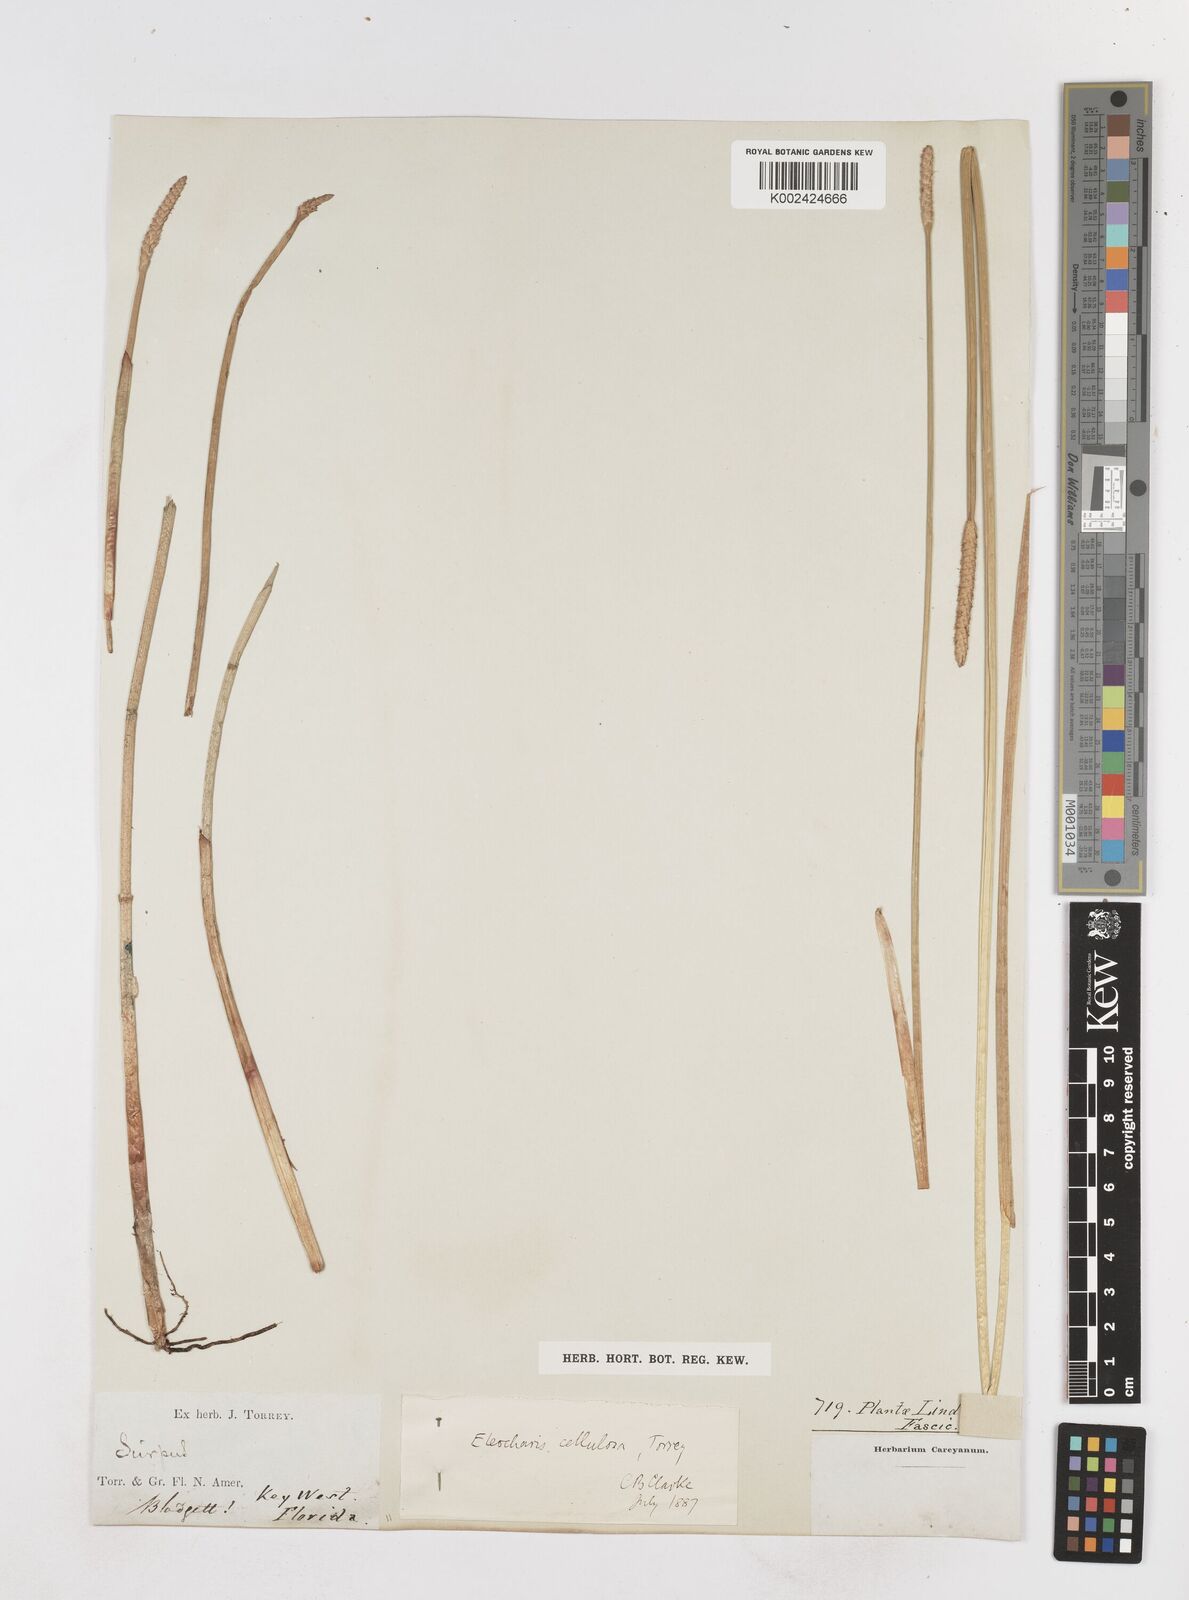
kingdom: Plantae
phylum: Tracheophyta
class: Liliopsida
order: Poales
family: Cyperaceae
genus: Eleocharis
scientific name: Eleocharis cellulosa
